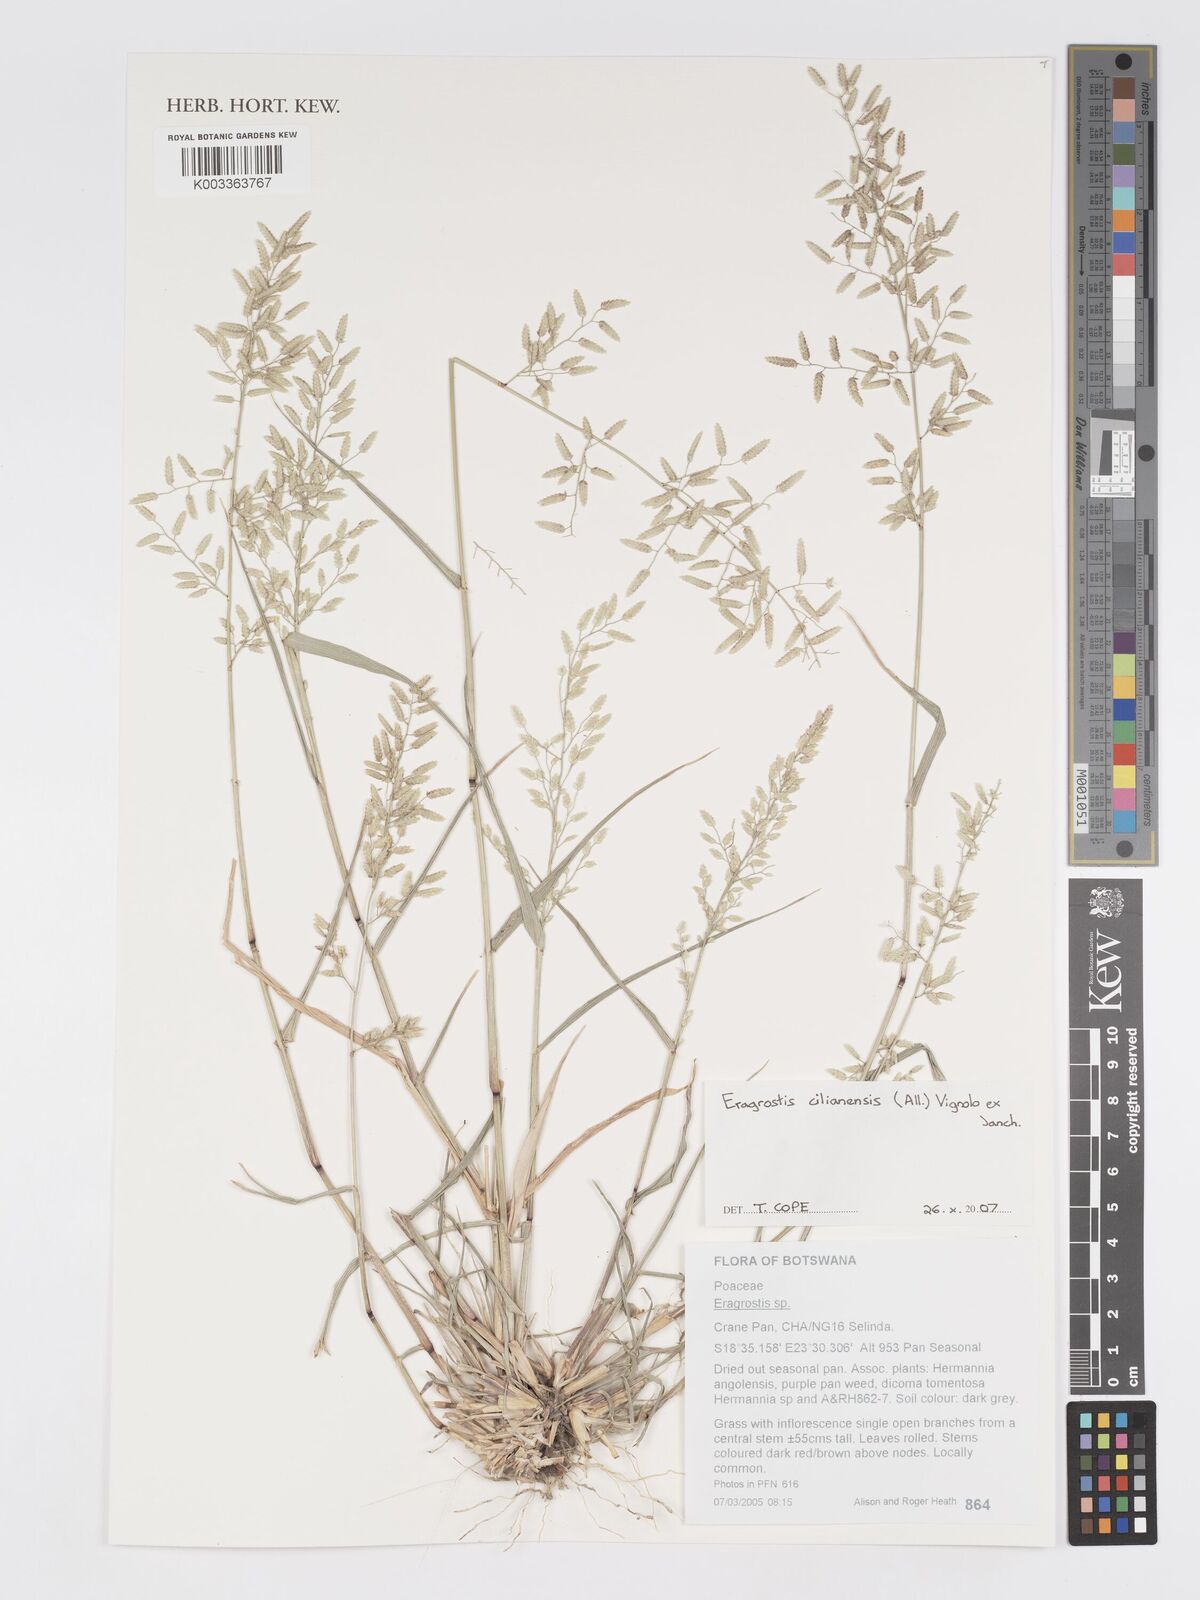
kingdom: Plantae
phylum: Tracheophyta
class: Liliopsida
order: Poales
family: Poaceae
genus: Eragrostis
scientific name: Eragrostis cilianensis
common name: Stinkgrass
